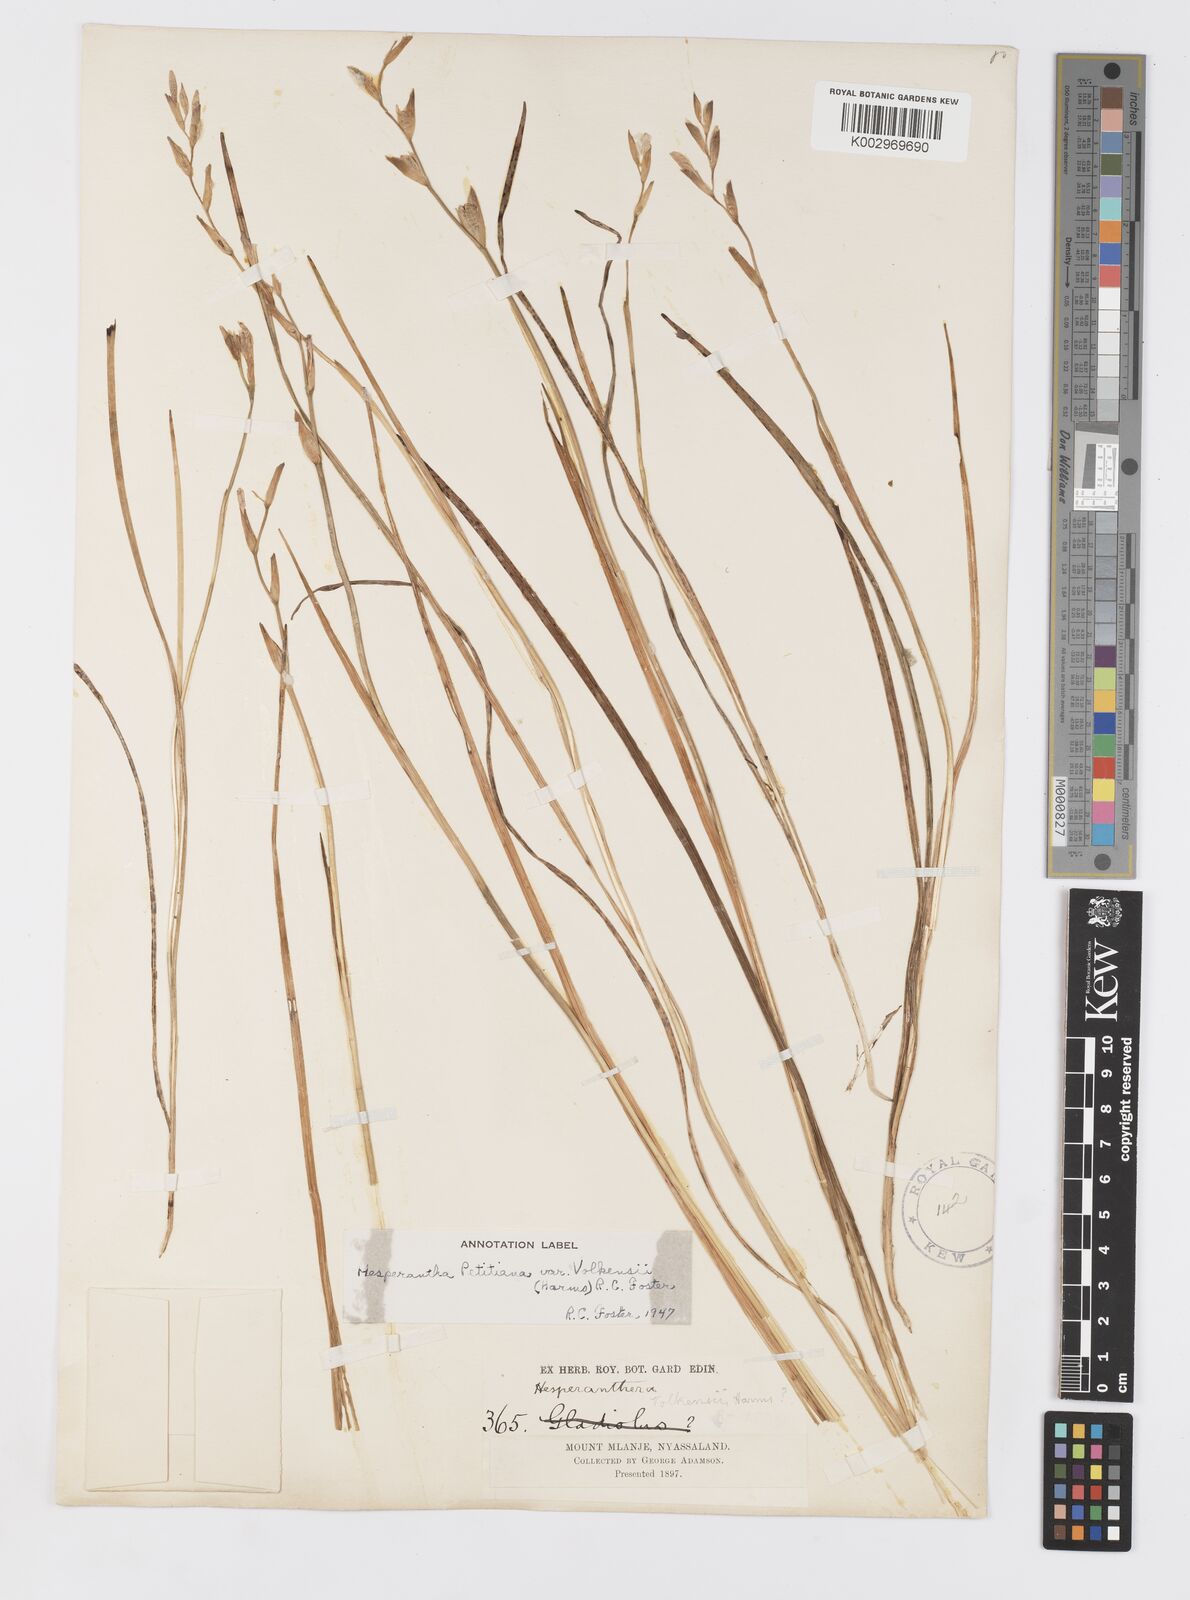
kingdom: Plantae
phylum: Tracheophyta
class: Liliopsida
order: Asparagales
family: Iridaceae
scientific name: Iridaceae
